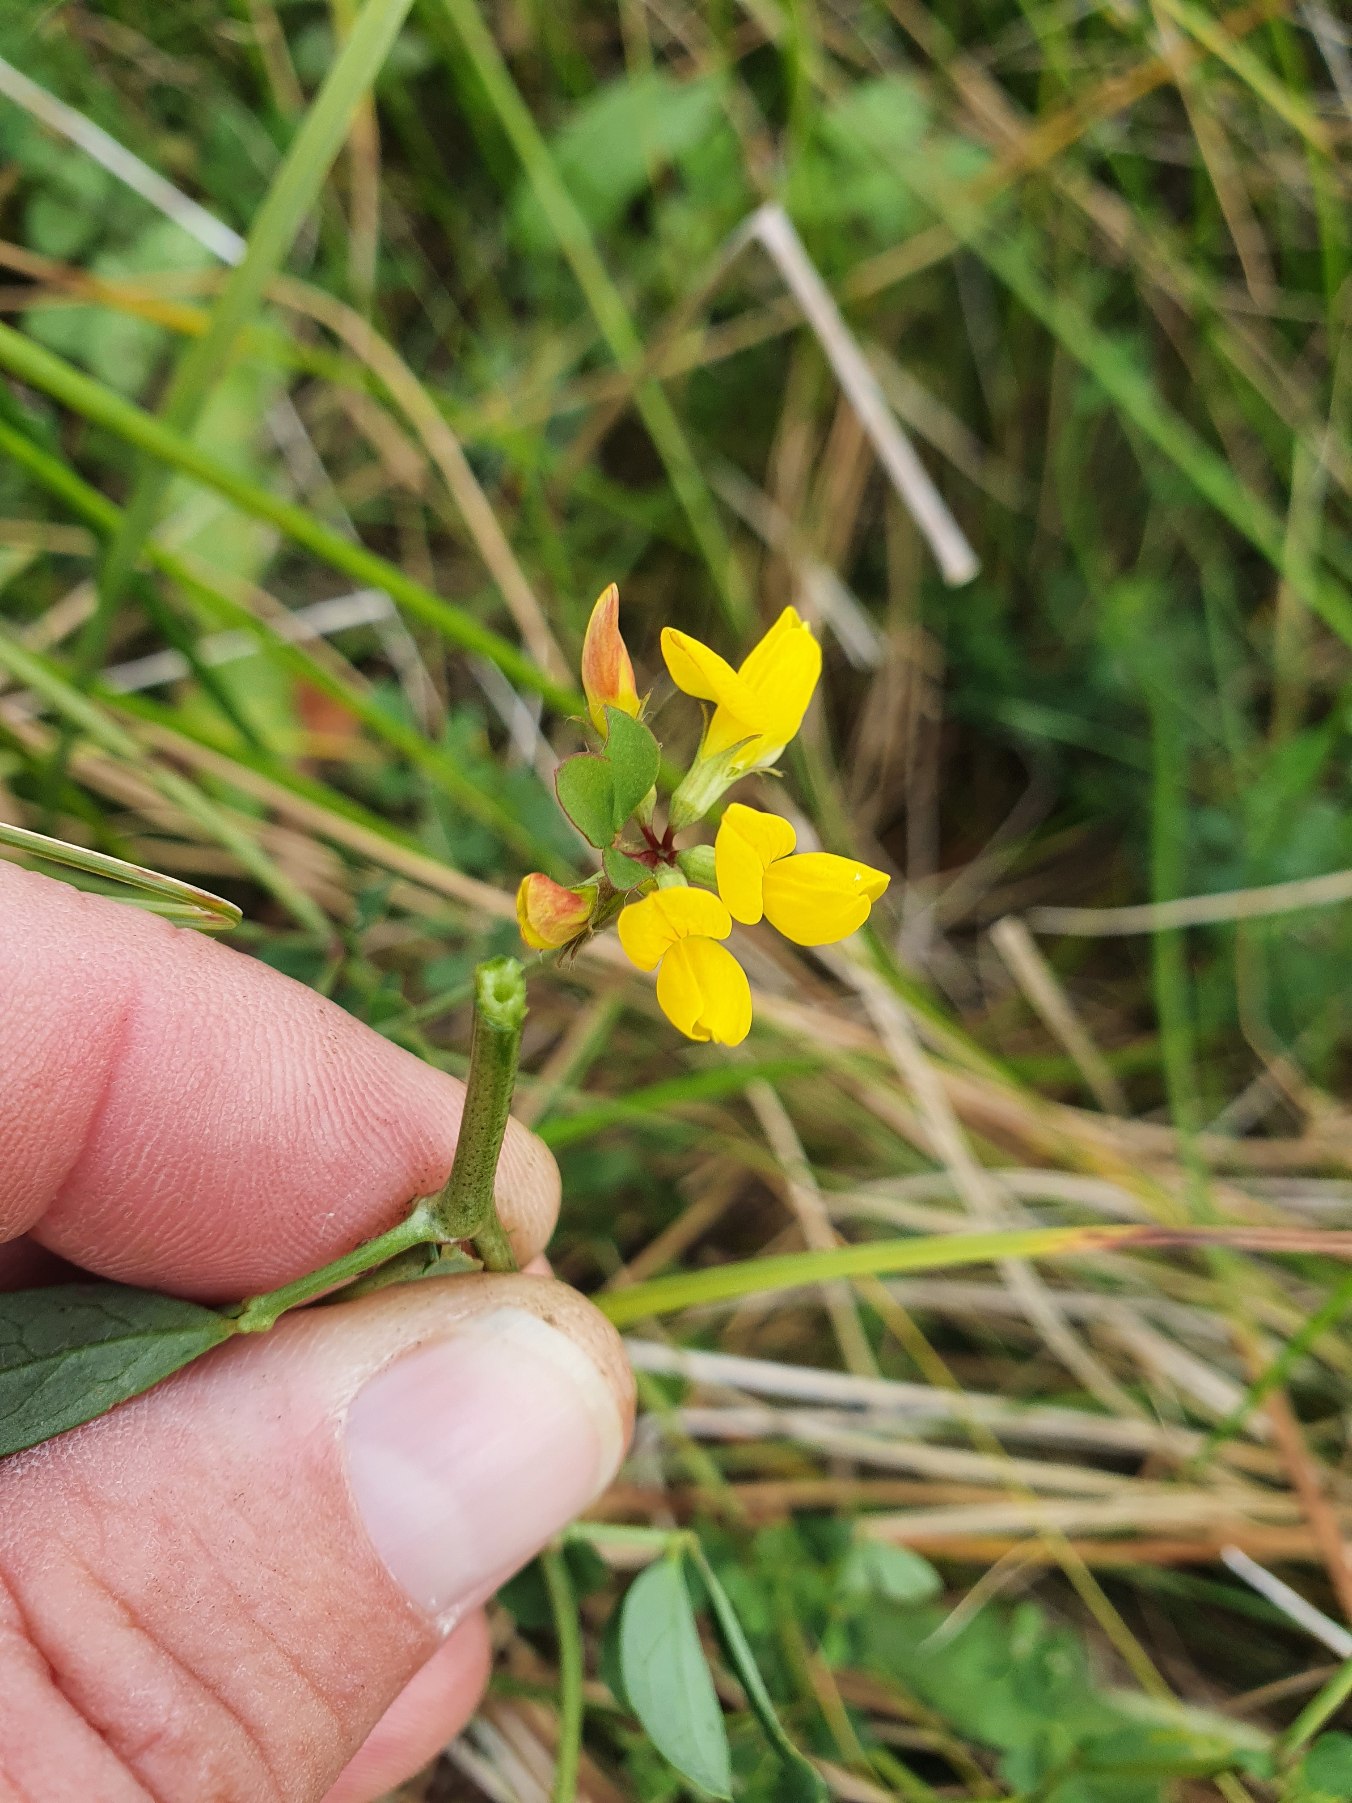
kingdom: Plantae
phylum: Tracheophyta
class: Magnoliopsida
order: Fabales
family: Fabaceae
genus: Lotus
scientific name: Lotus pedunculatus
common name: Sump-kællingetand
